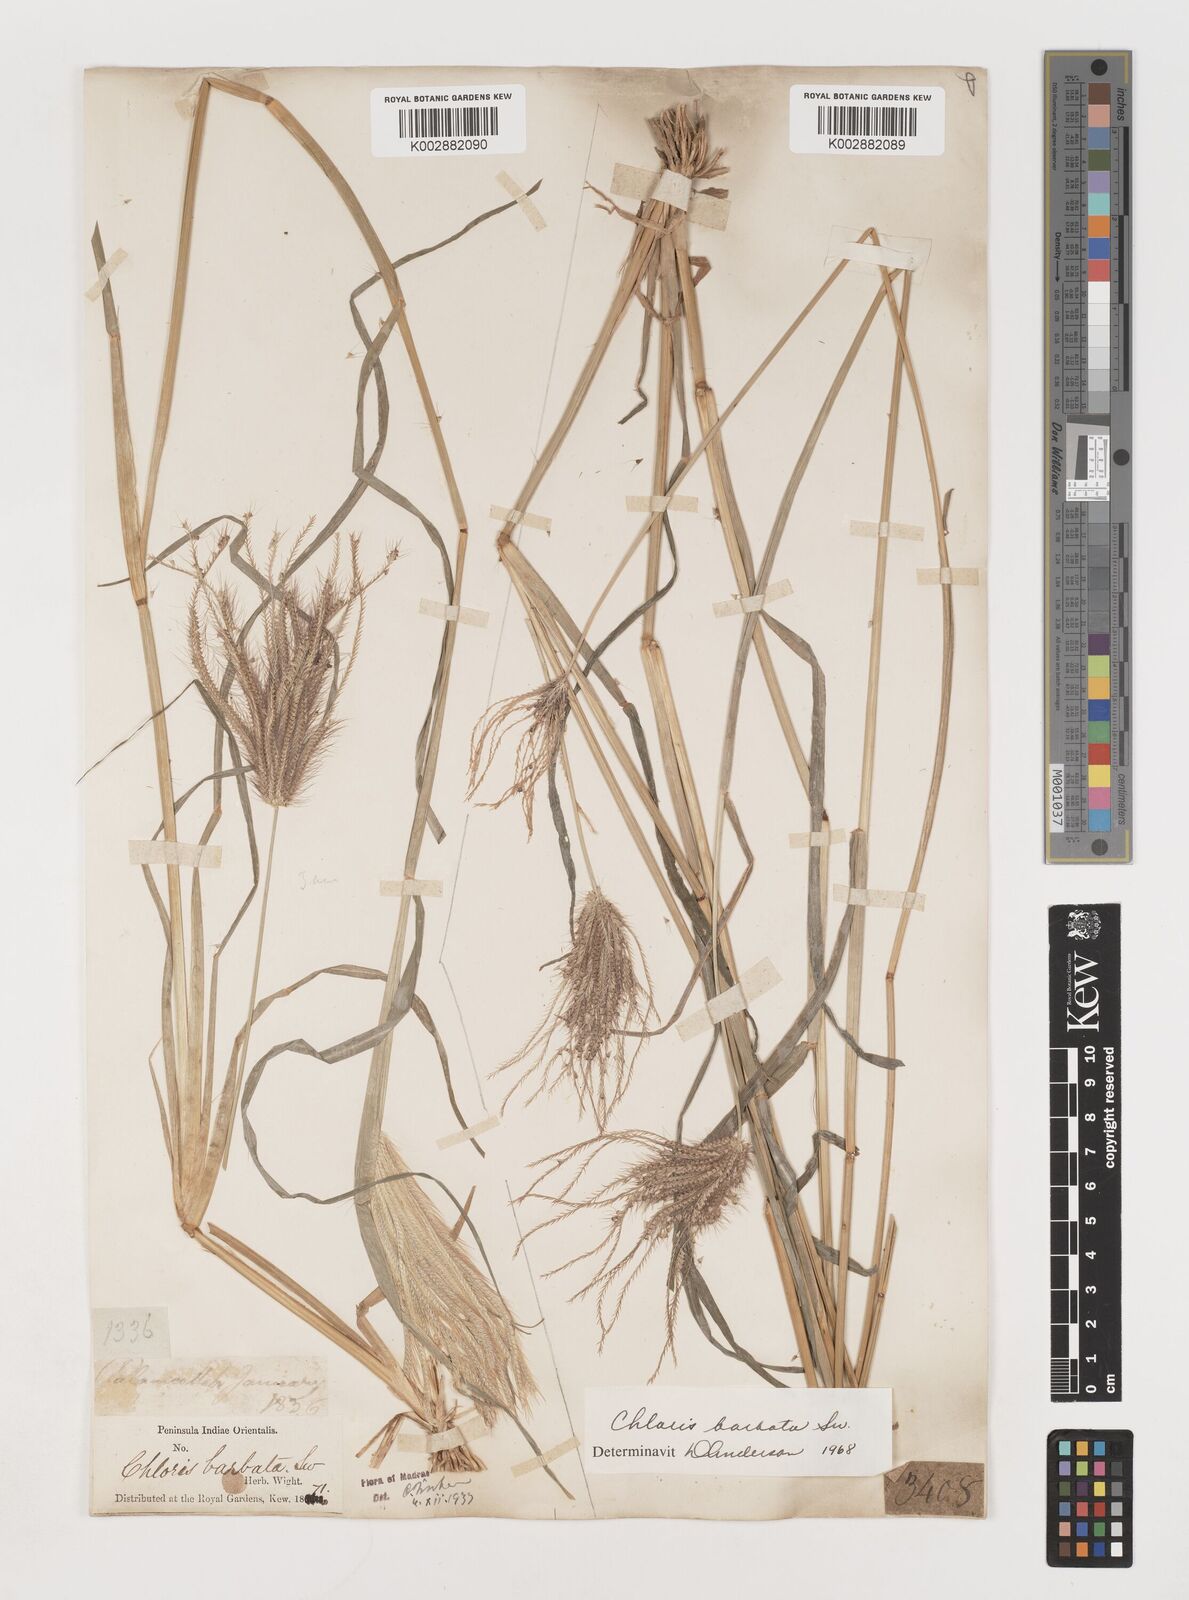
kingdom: Plantae
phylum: Tracheophyta
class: Liliopsida
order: Poales
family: Poaceae
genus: Chloris
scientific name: Chloris barbata
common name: Swollen fingergrass
